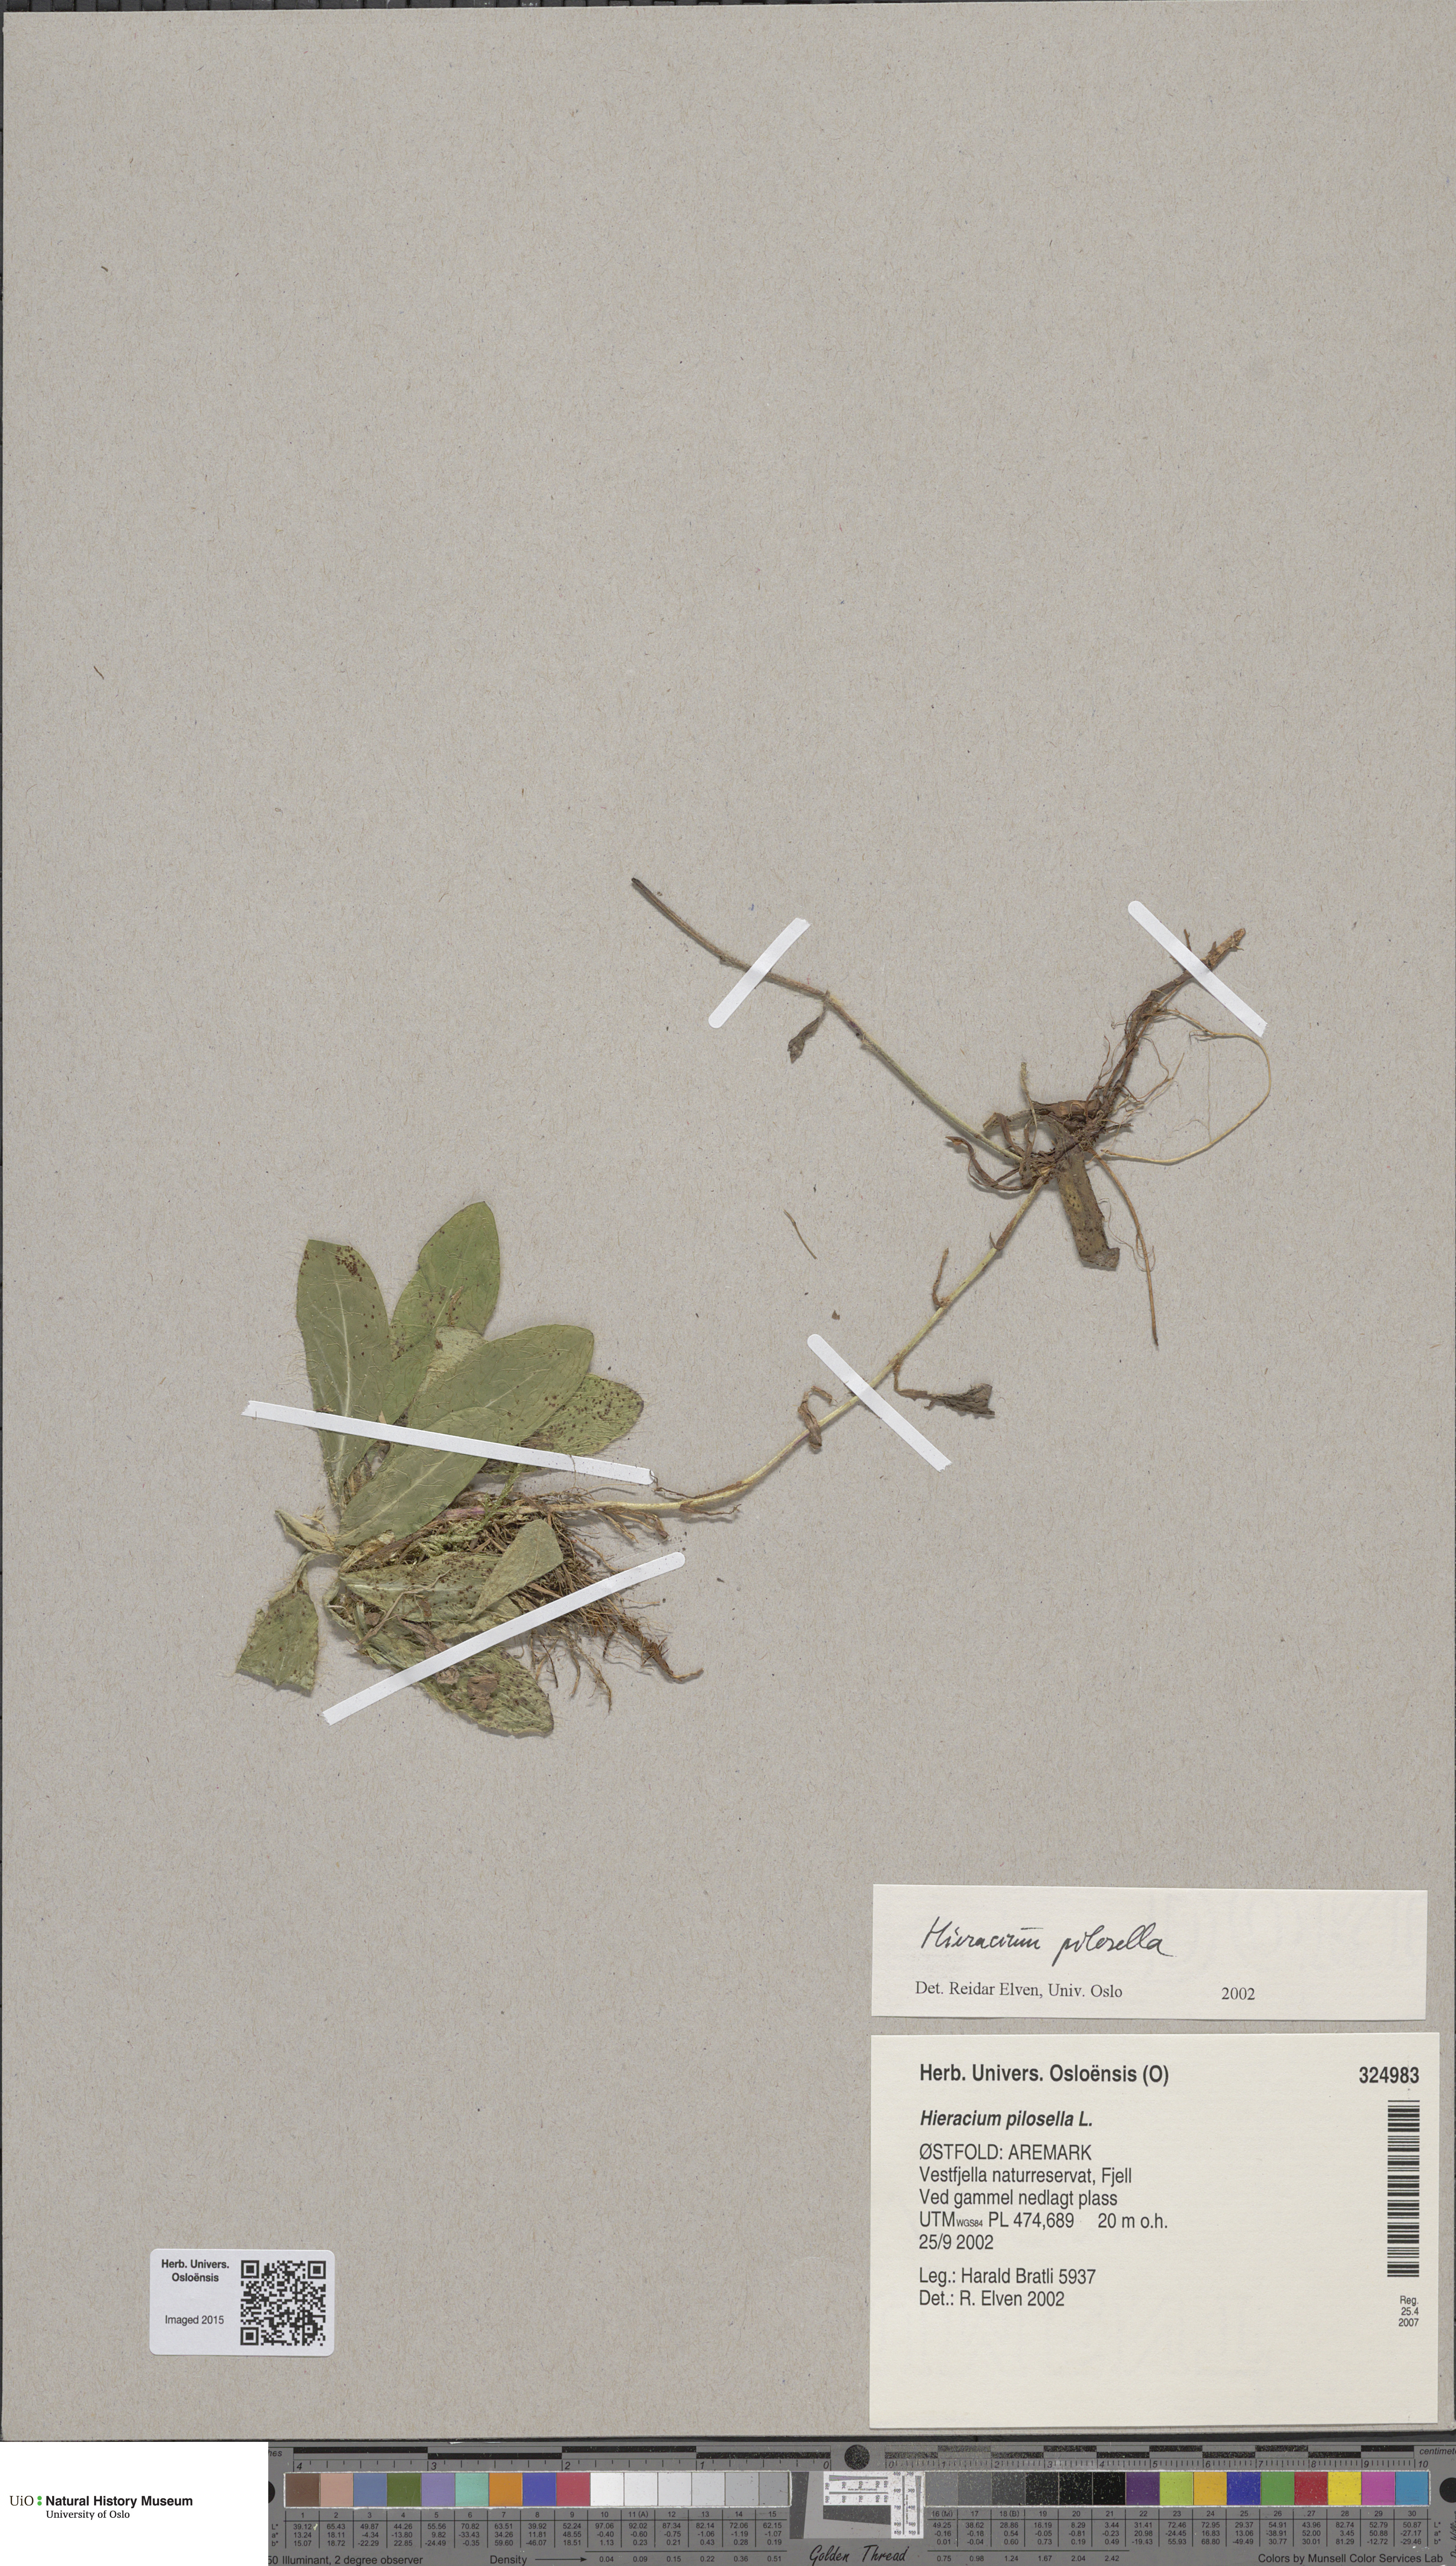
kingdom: Plantae
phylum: Tracheophyta
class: Magnoliopsida
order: Asterales
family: Asteraceae
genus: Pilosella
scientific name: Pilosella officinarum
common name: Mouse-ear hawkweed
